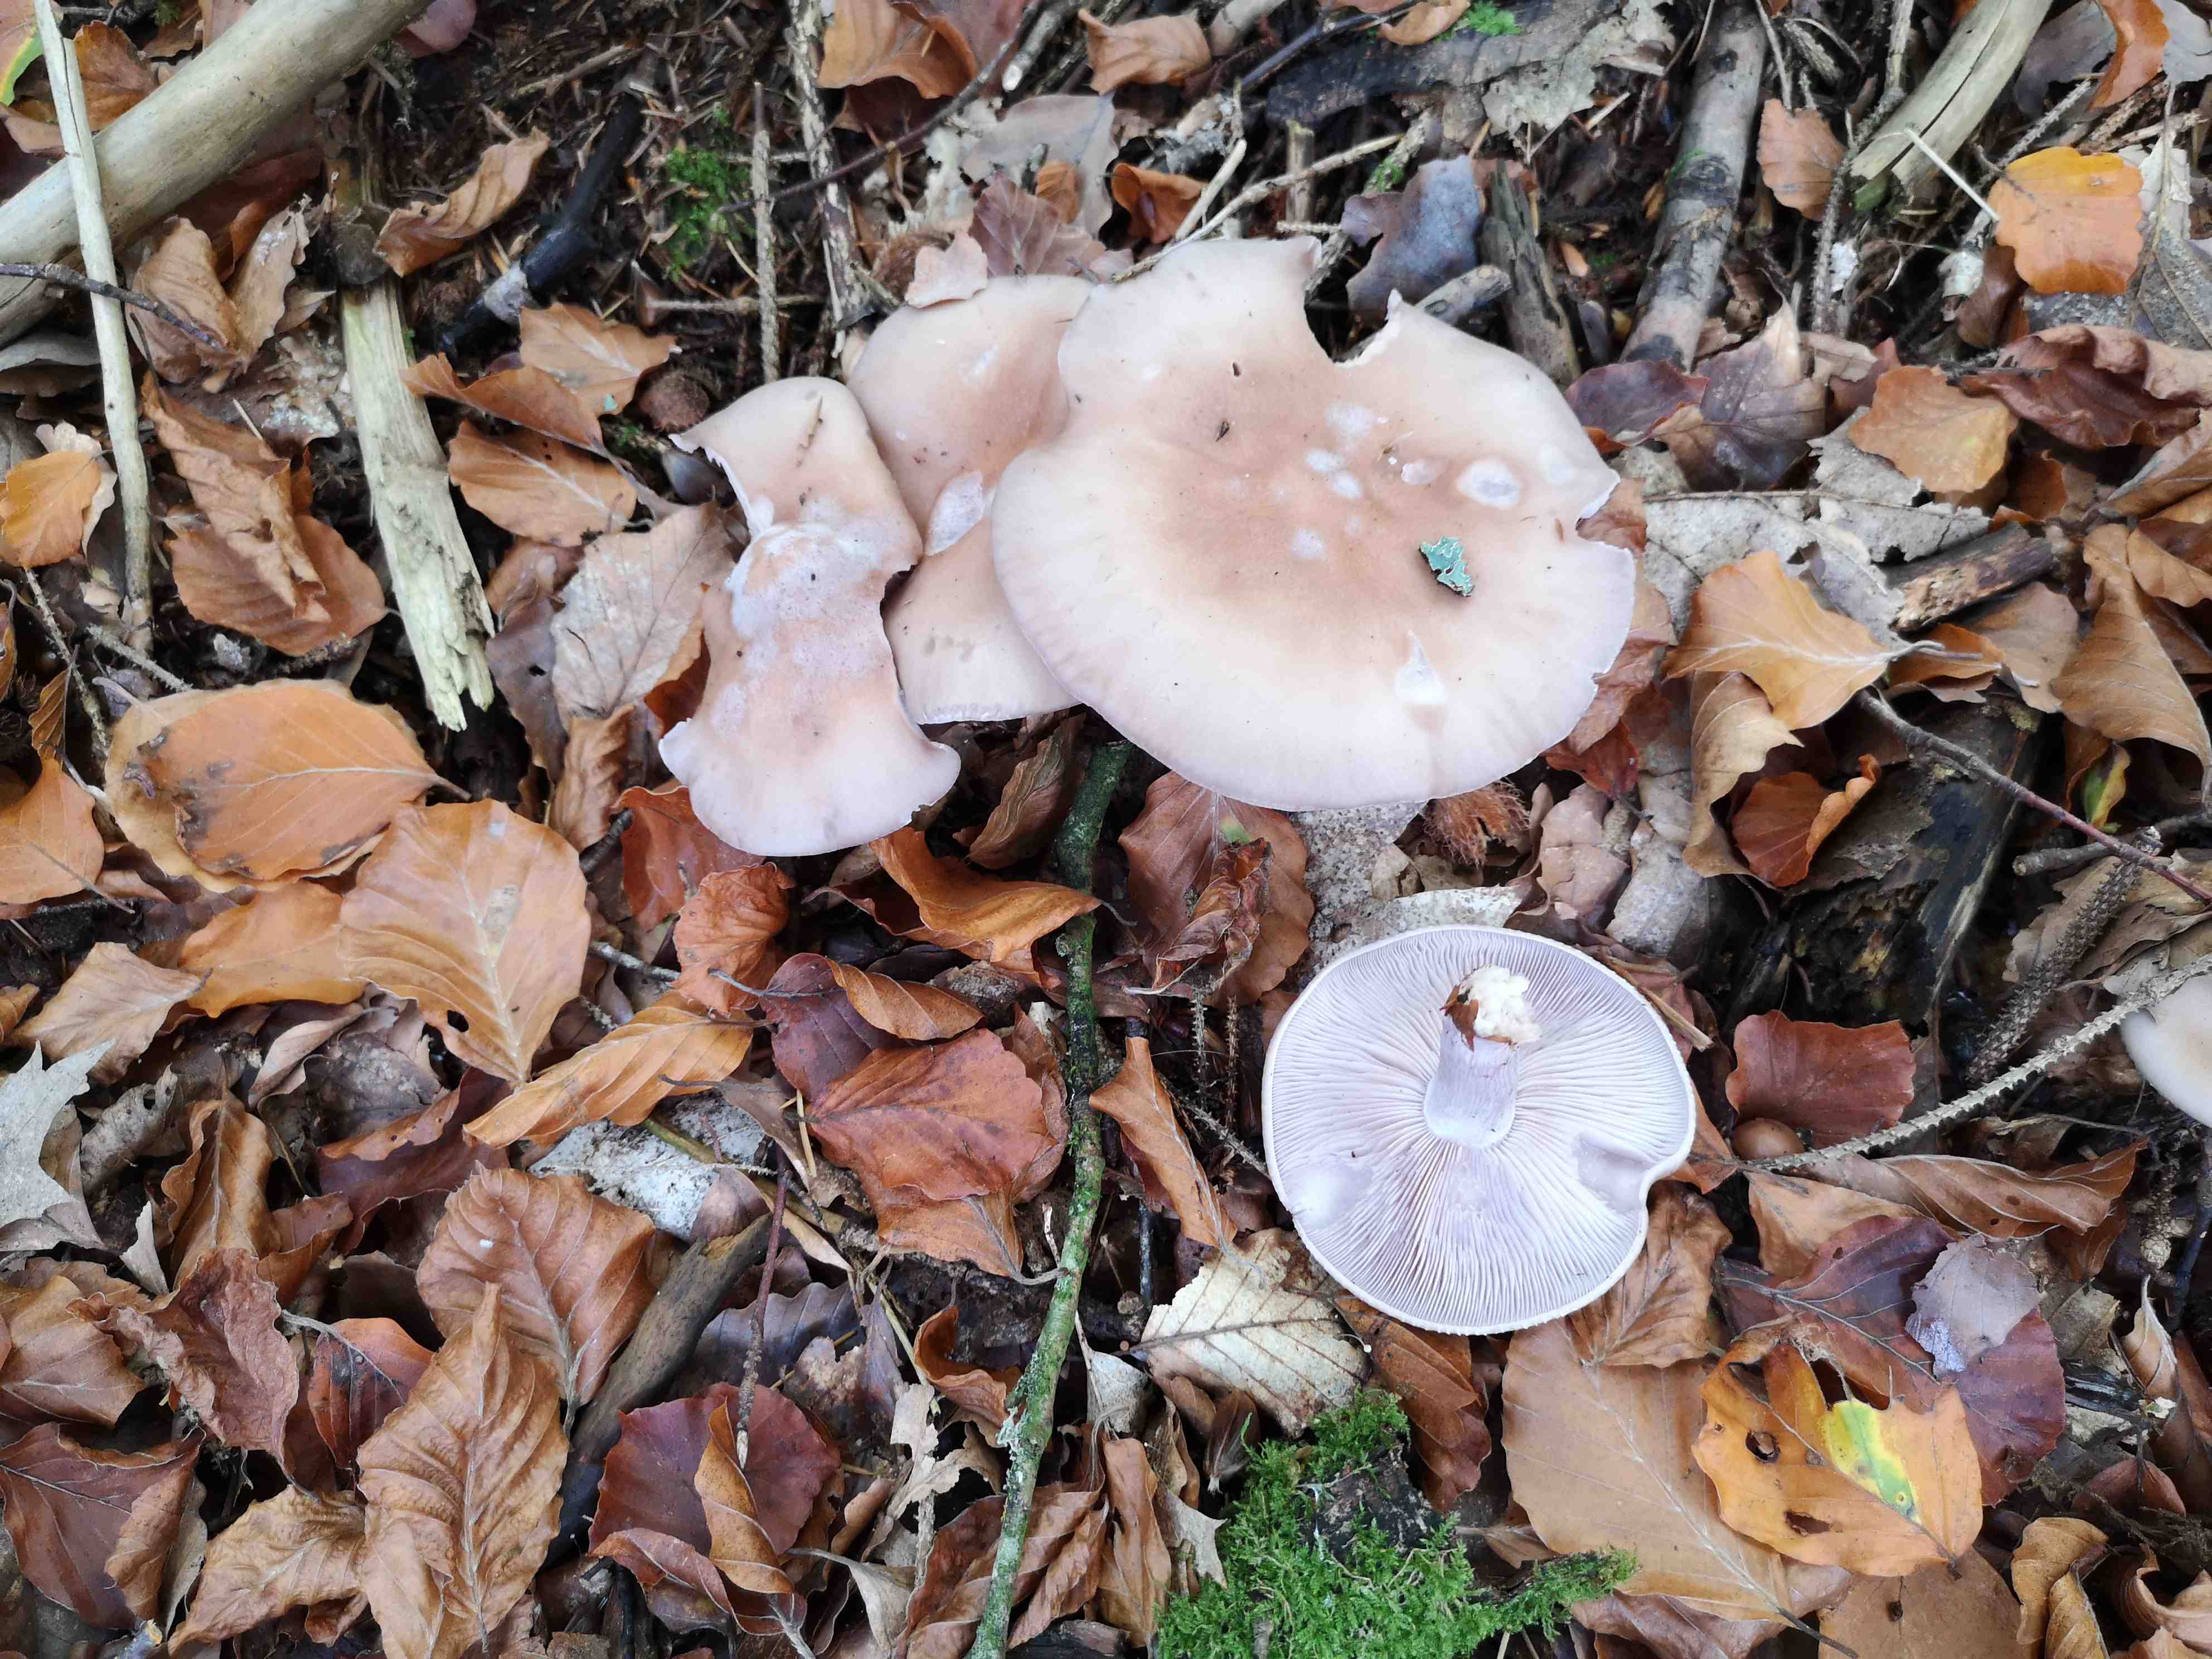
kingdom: Fungi
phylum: Basidiomycota
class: Agaricomycetes
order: Agaricales
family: Tricholomataceae
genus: Lepista
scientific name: Lepista nuda
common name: violet hekseringshat
